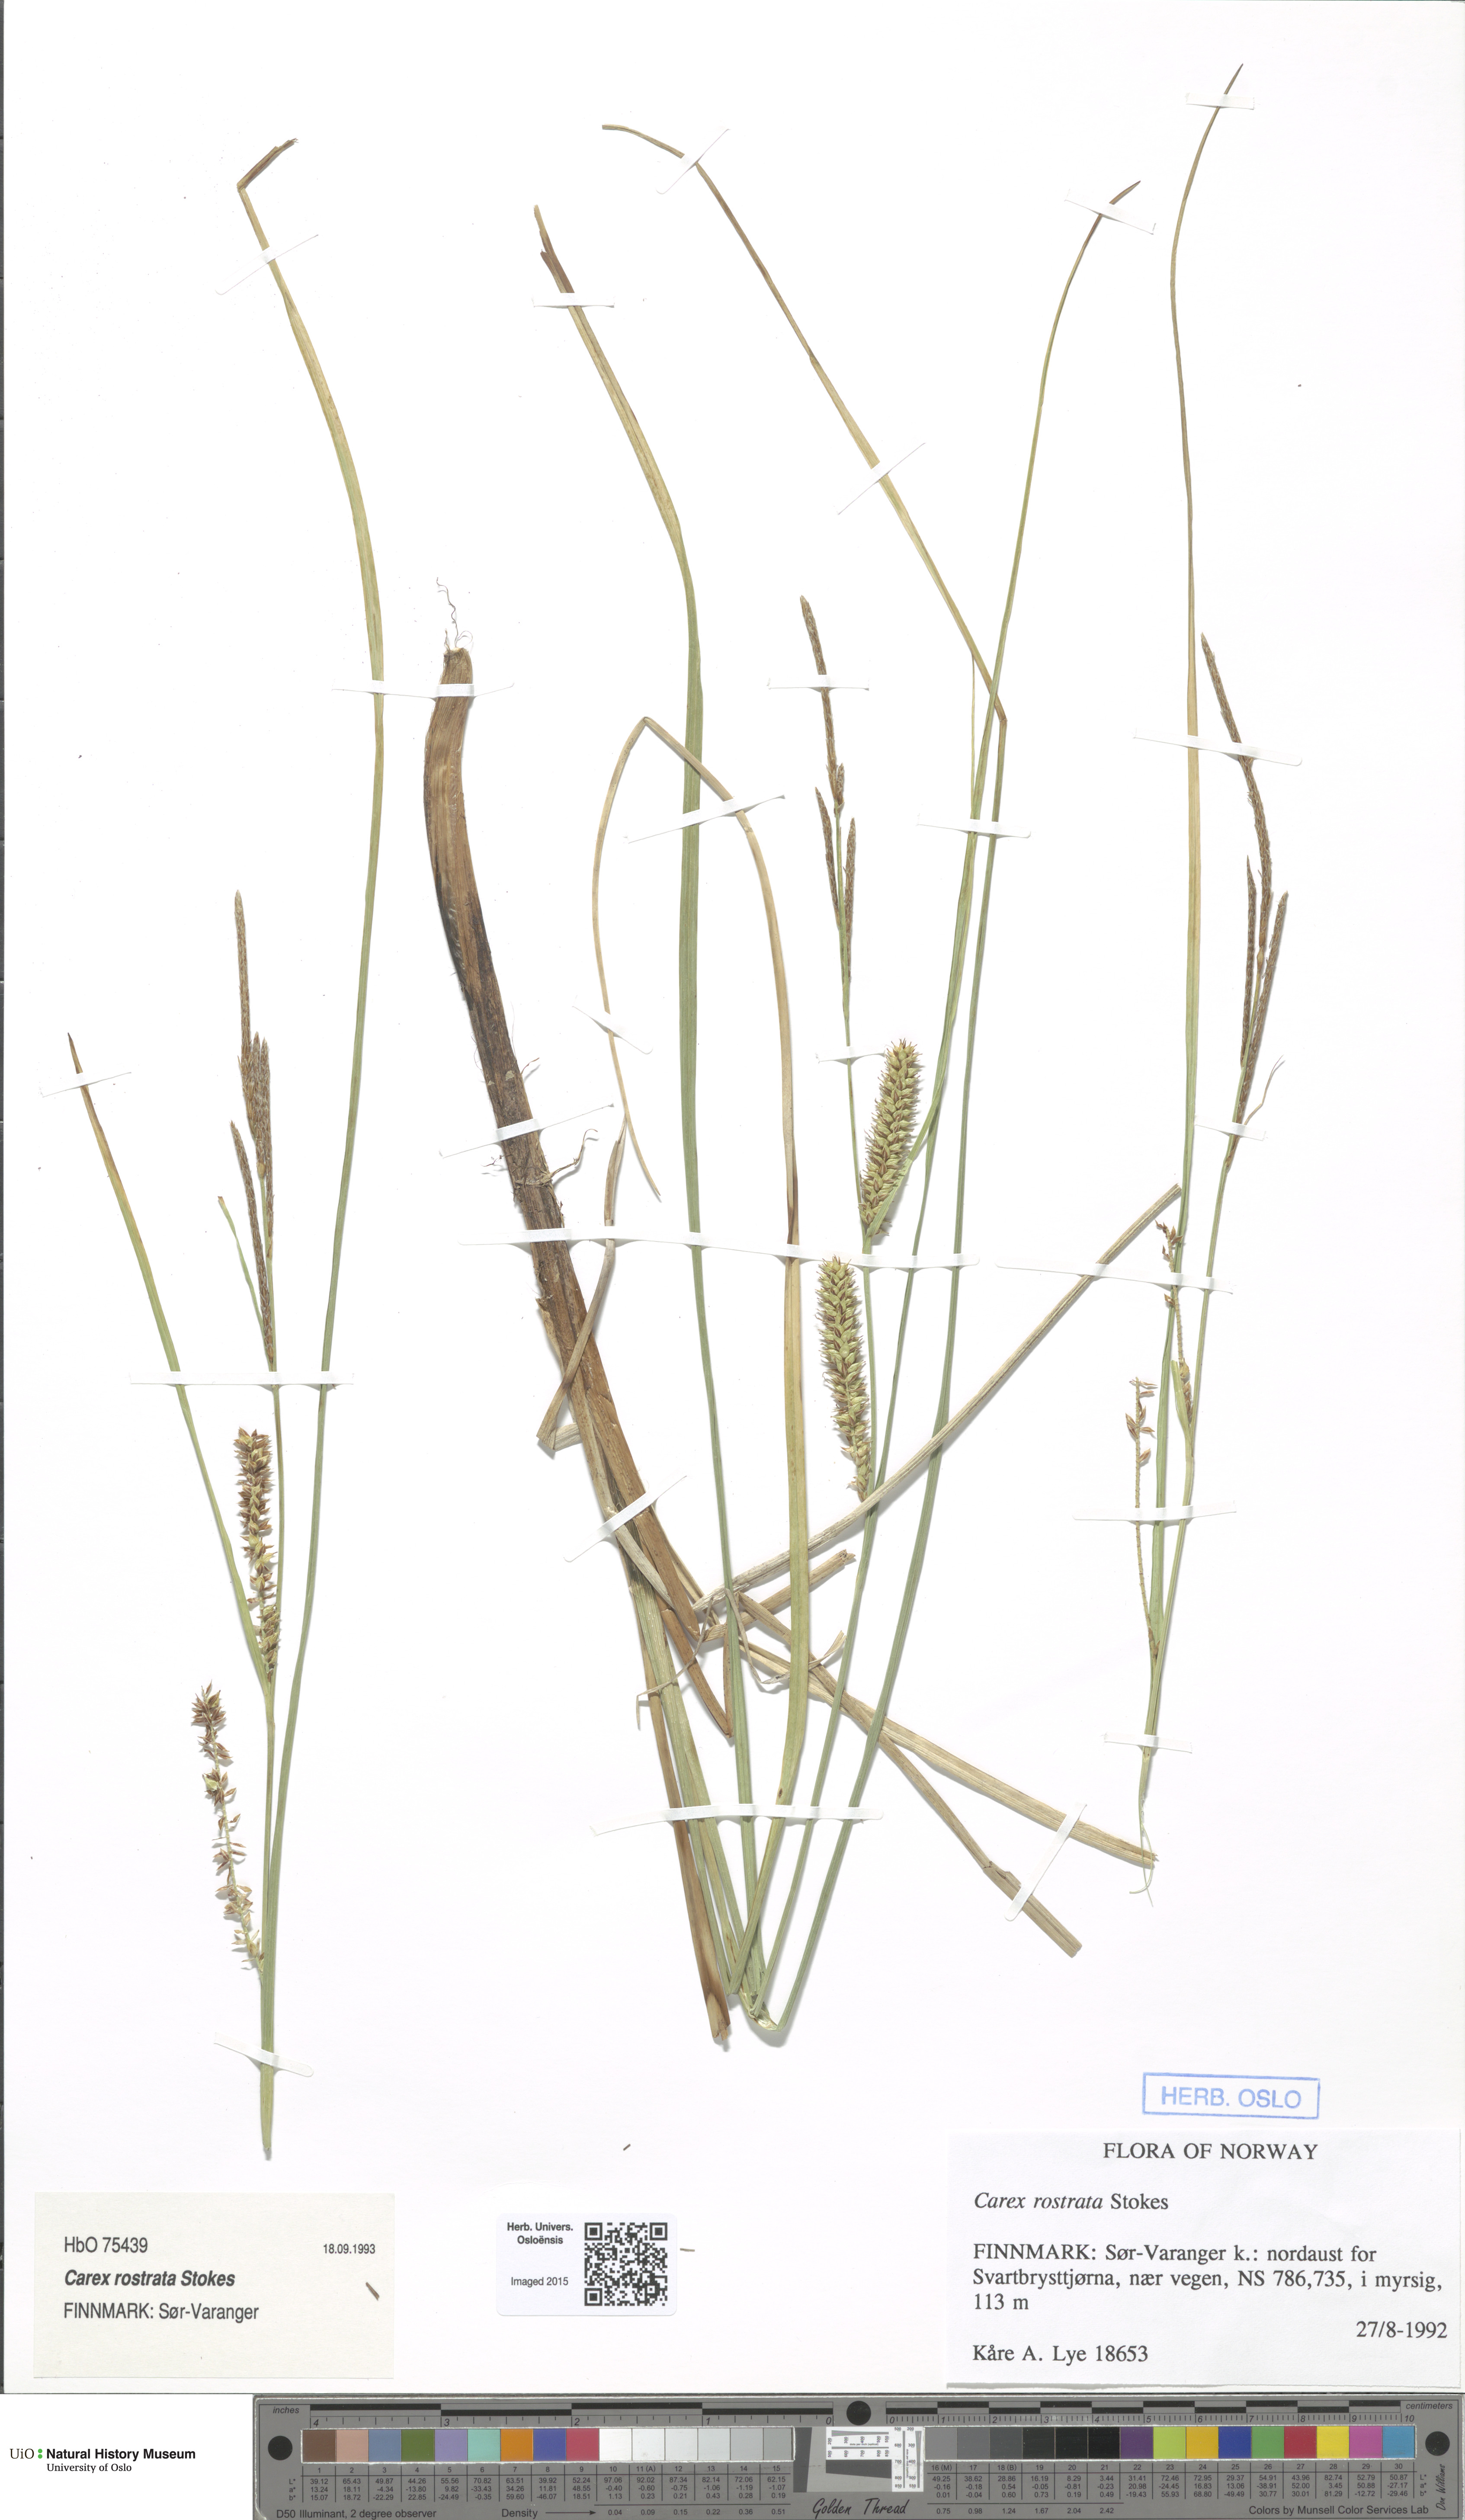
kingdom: Plantae
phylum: Tracheophyta
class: Liliopsida
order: Poales
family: Cyperaceae
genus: Carex
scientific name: Carex rostrata
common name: Bottle sedge
